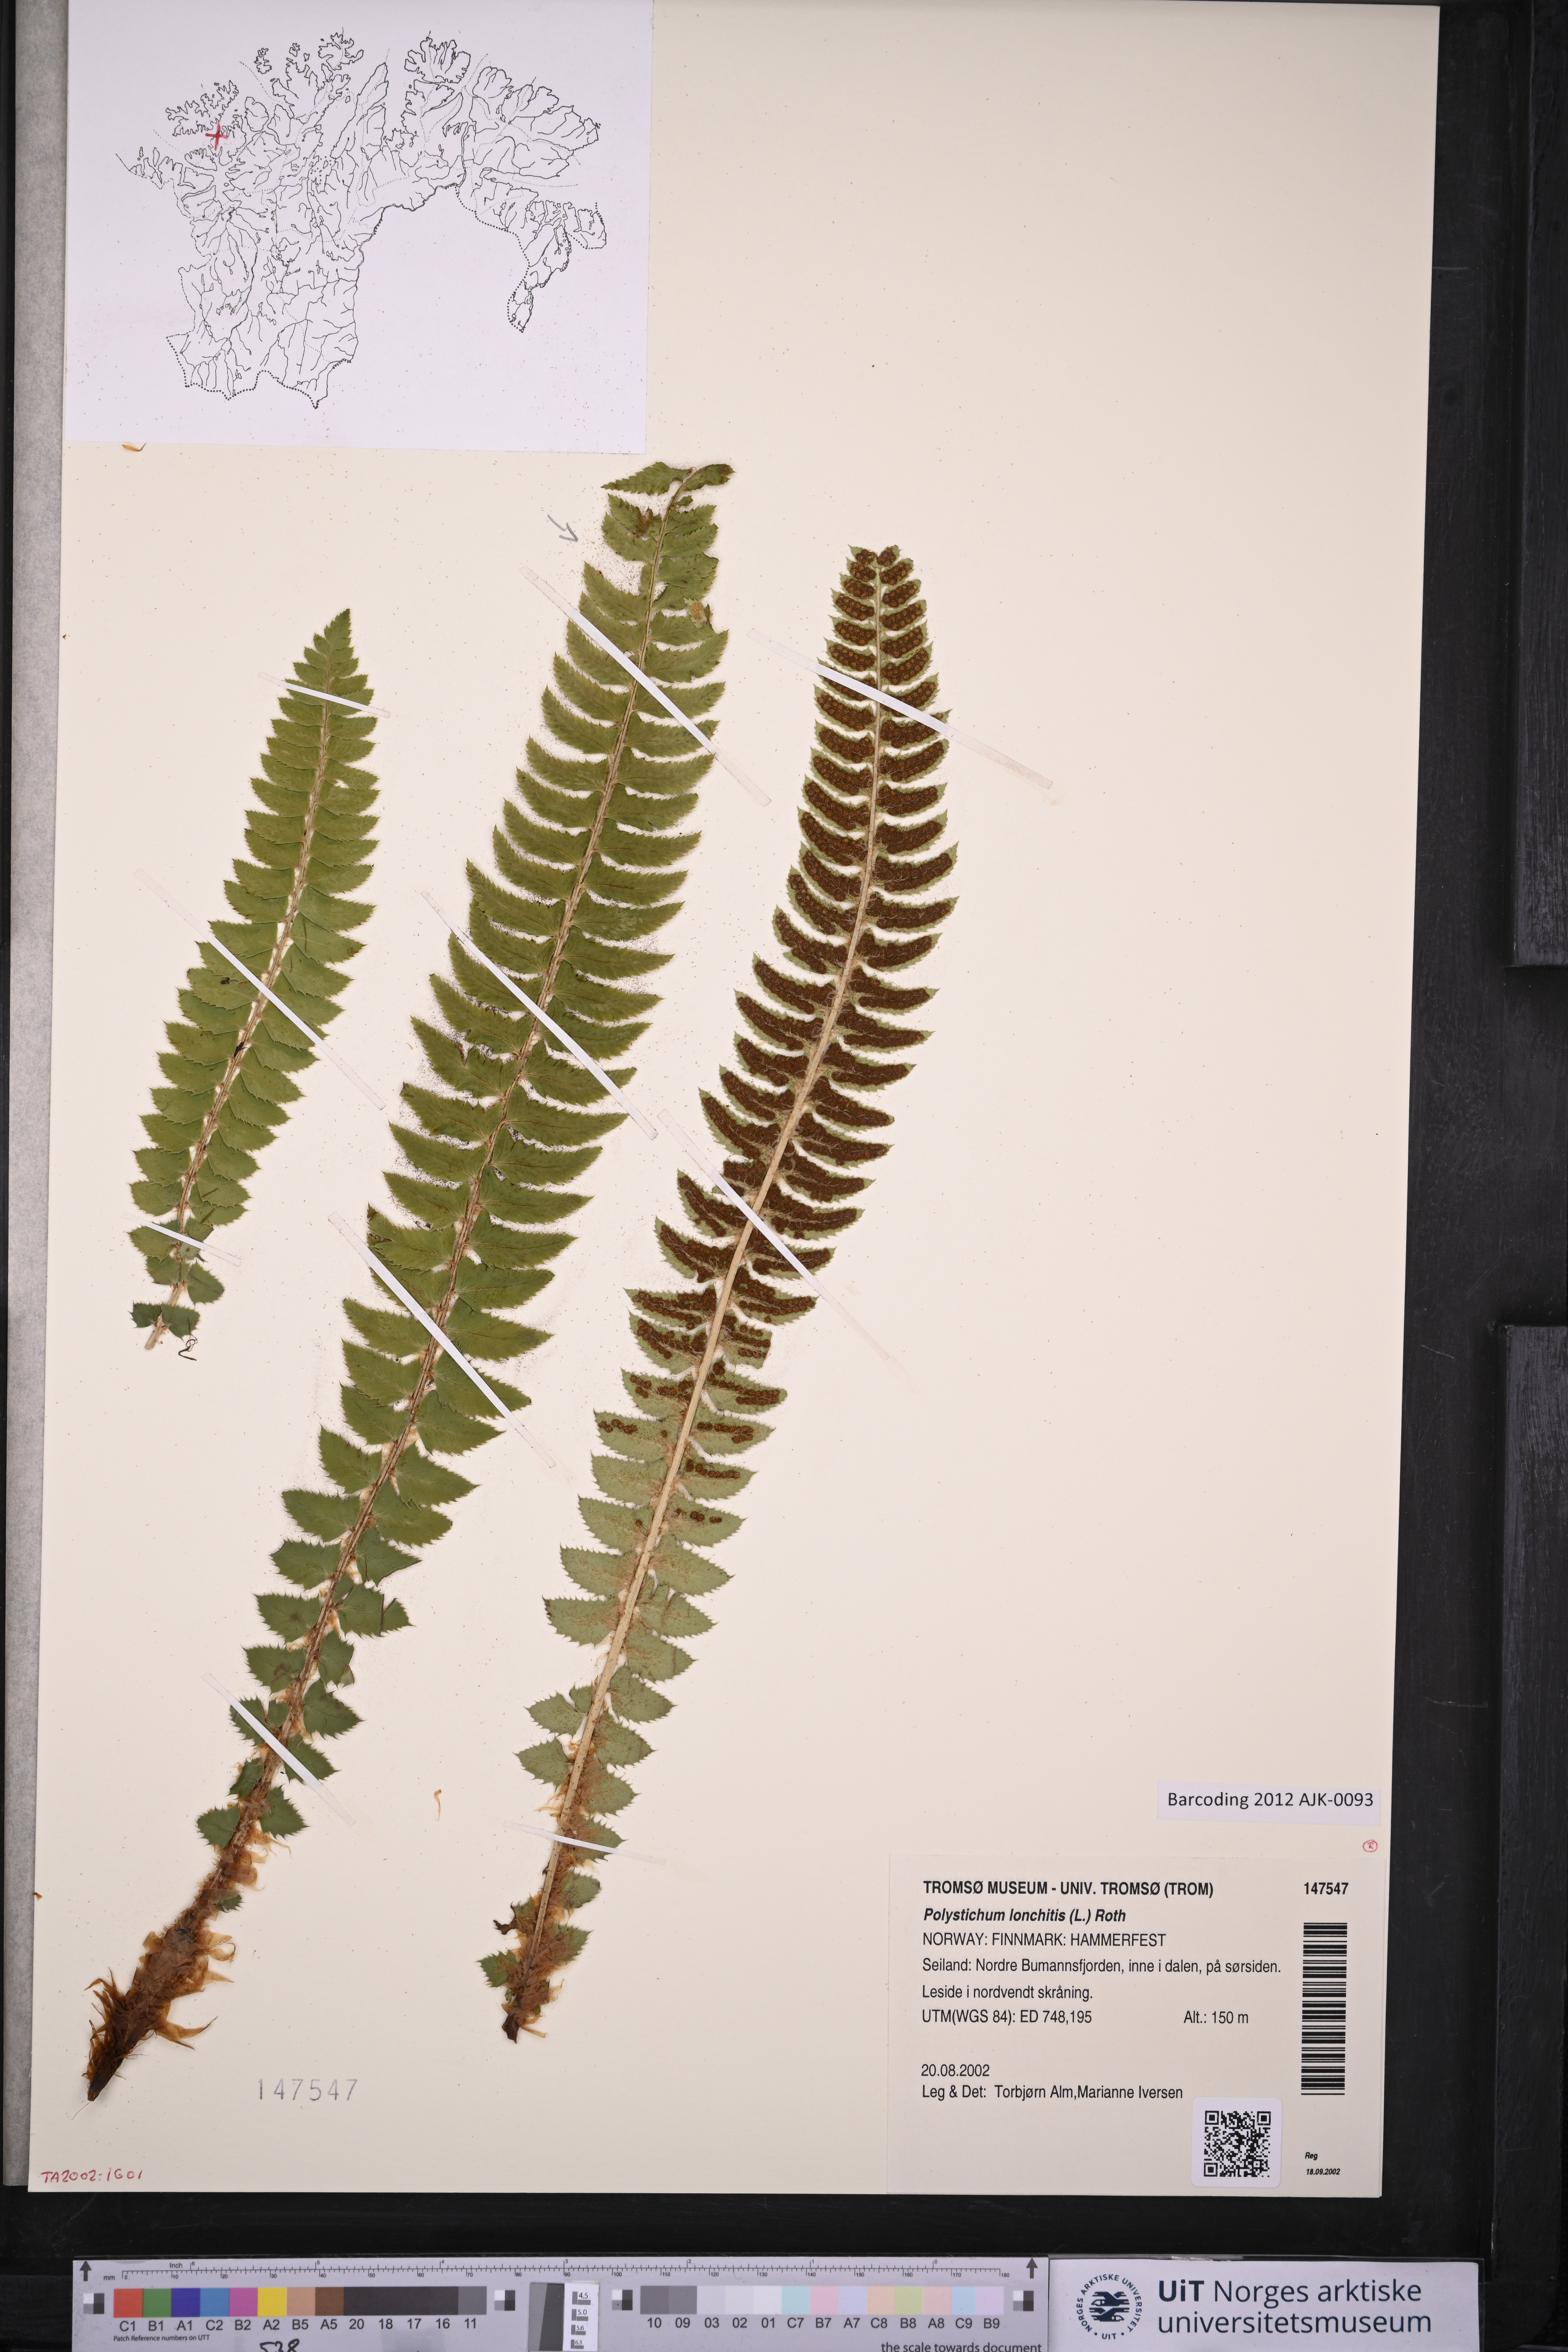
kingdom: Plantae
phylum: Tracheophyta
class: Polypodiopsida
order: Polypodiales
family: Dryopteridaceae
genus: Polystichum
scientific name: Polystichum lonchitis
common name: Holly fern
